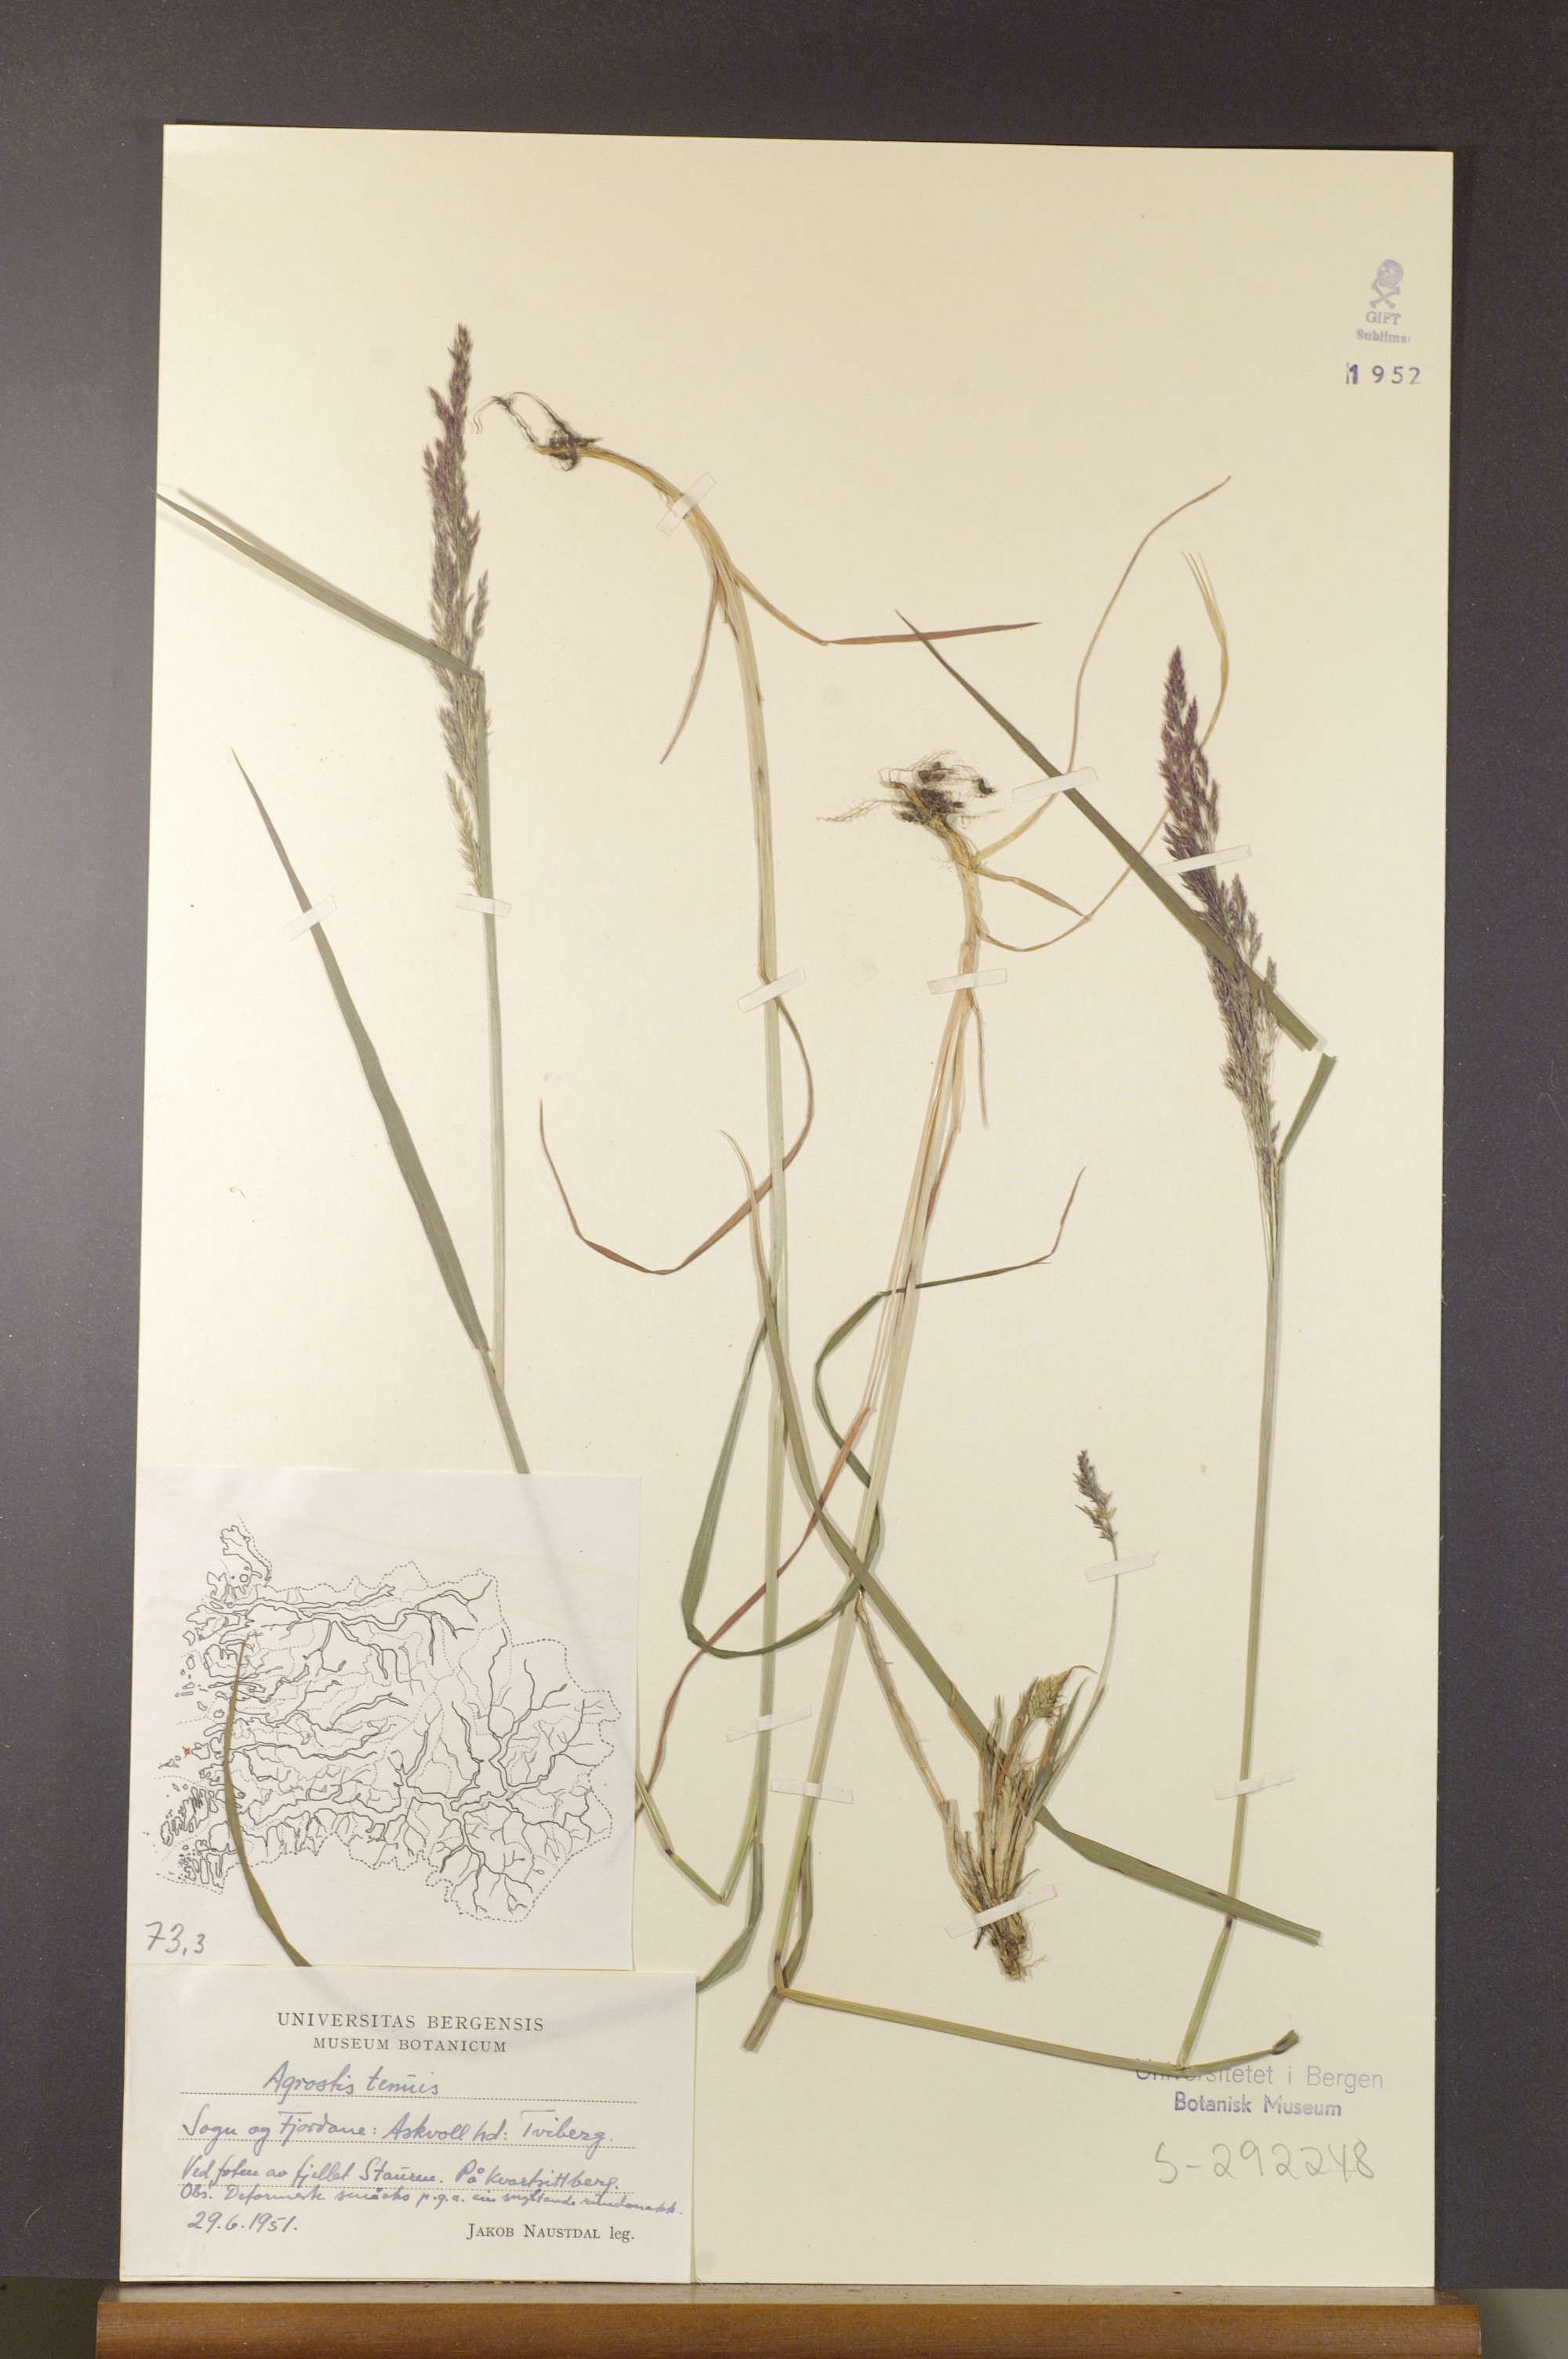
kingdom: Plantae
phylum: Tracheophyta
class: Liliopsida
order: Poales
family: Poaceae
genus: Agrostis
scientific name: Agrostis capillaris
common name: Colonial bentgrass
